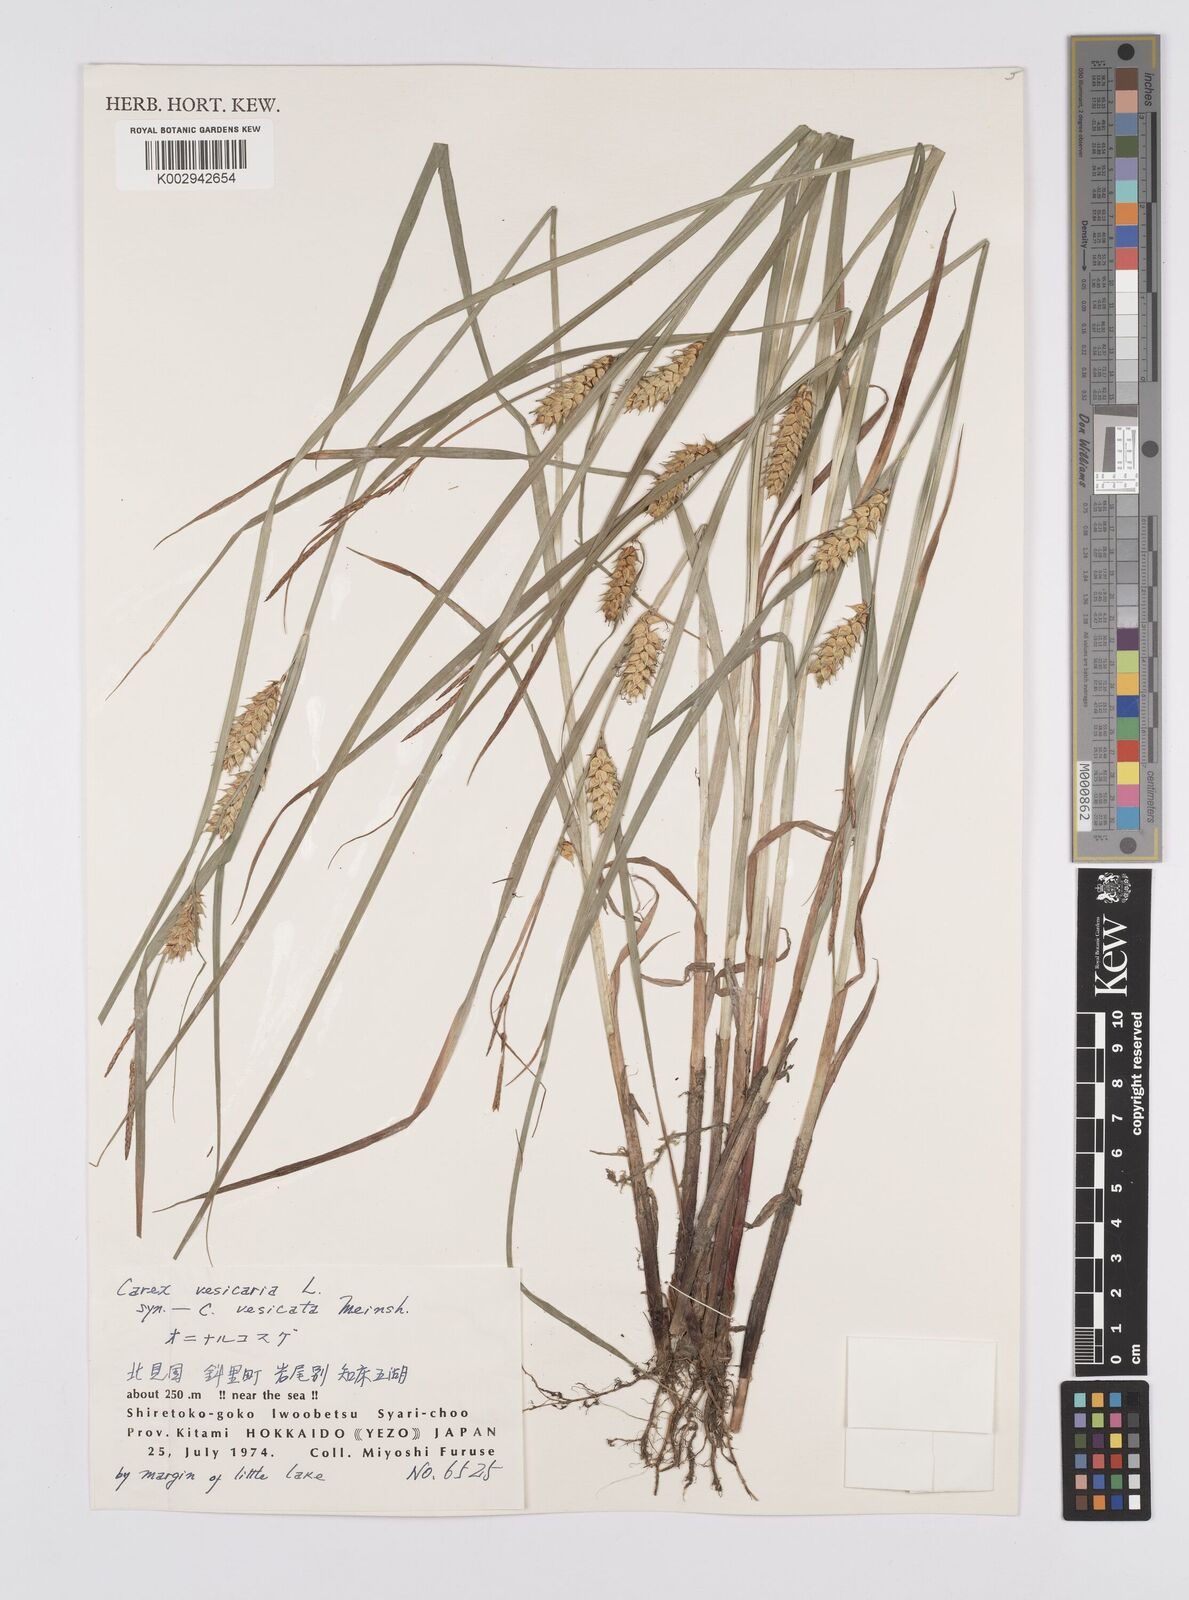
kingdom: Plantae
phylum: Tracheophyta
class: Liliopsida
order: Poales
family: Cyperaceae
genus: Carex
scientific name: Carex vesicaria
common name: Bladder-sedge
